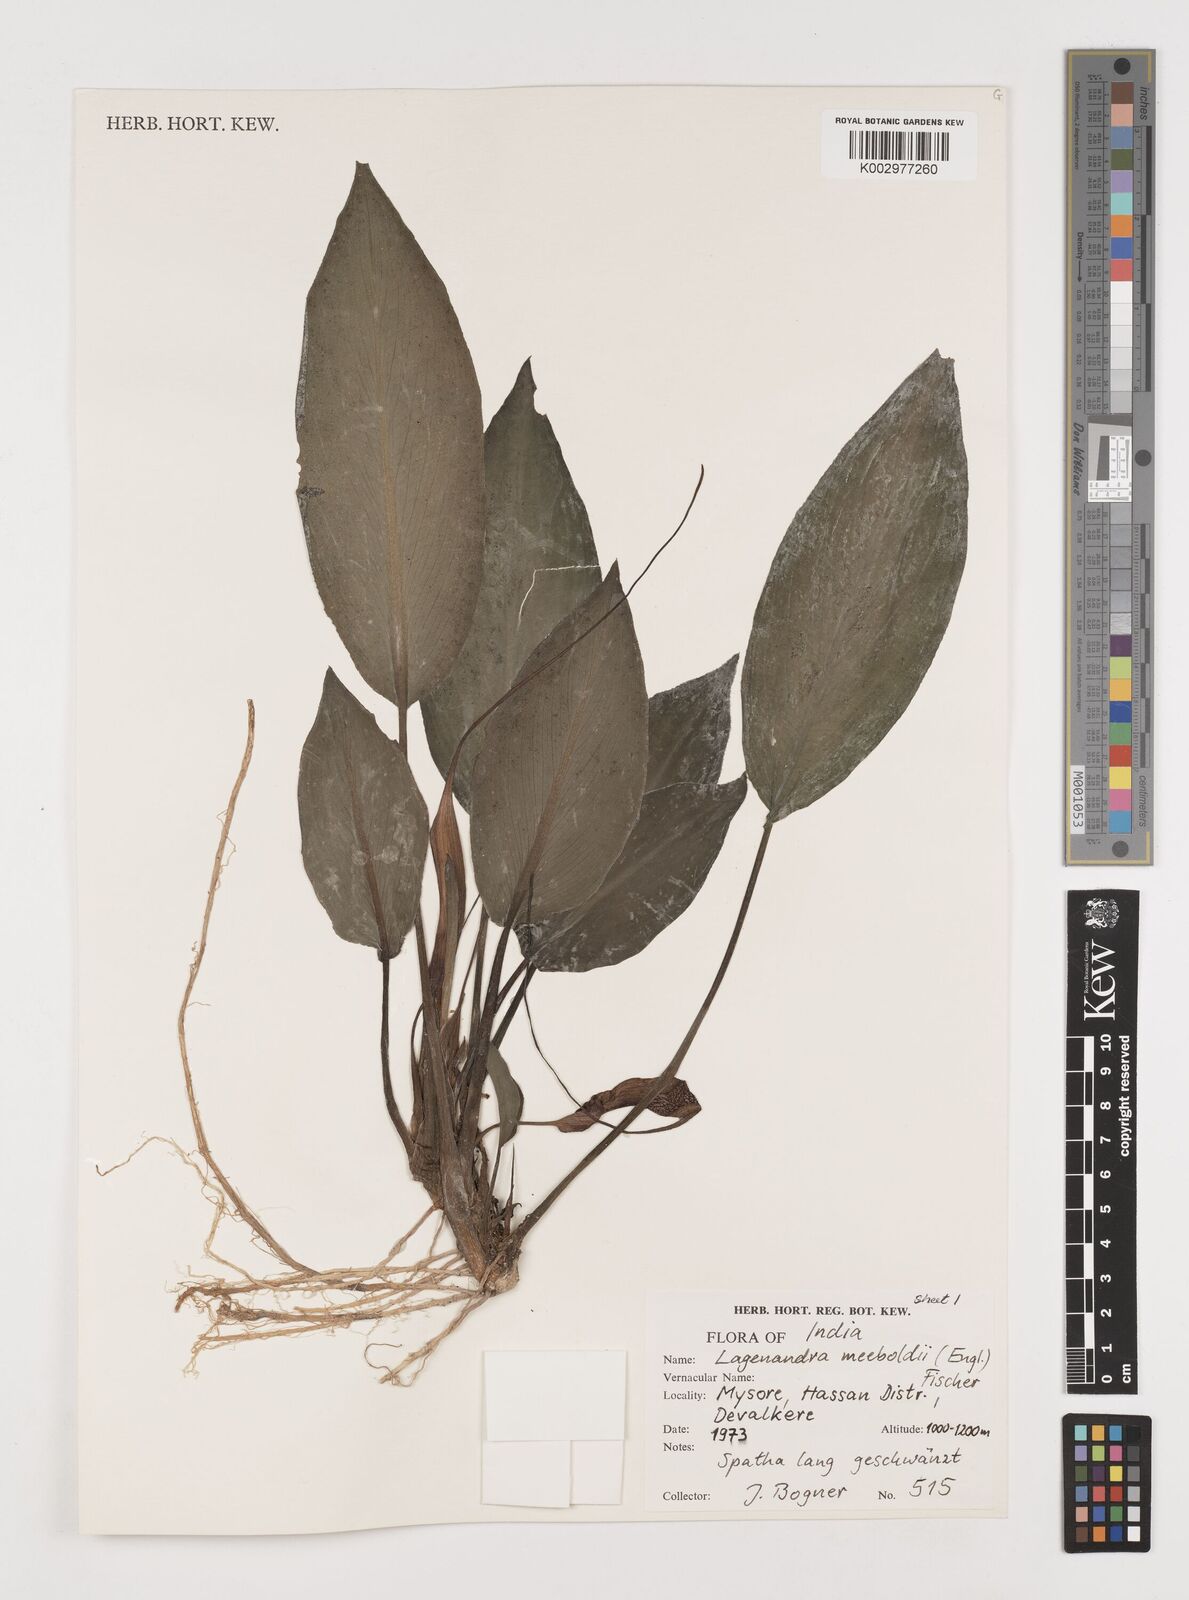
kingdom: Plantae
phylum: Tracheophyta
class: Liliopsida
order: Alismatales
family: Araceae
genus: Lagenandra
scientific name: Lagenandra meeboldii
